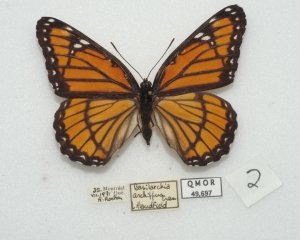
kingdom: Animalia
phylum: Arthropoda
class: Insecta
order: Lepidoptera
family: Nymphalidae
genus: Limenitis
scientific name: Limenitis archippus
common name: Viceroy
